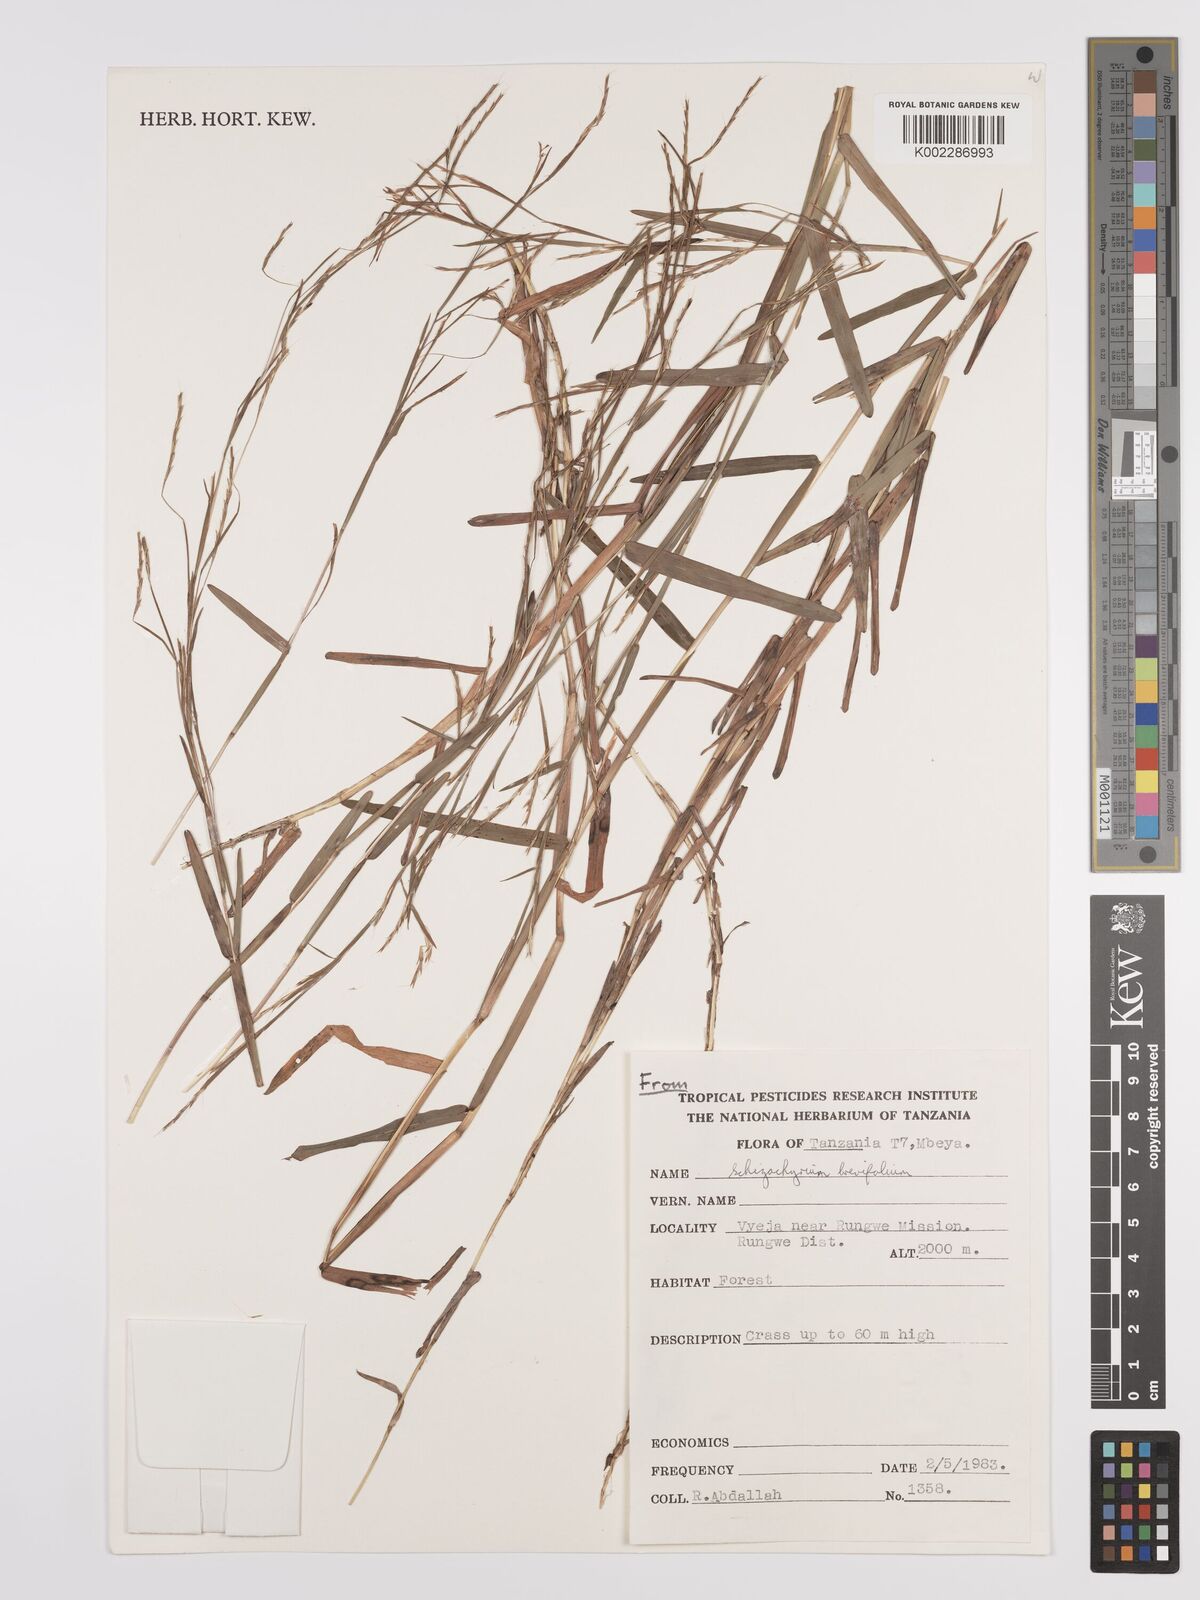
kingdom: Plantae
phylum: Tracheophyta
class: Liliopsida
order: Poales
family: Poaceae
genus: Schizachyrium
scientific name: Schizachyrium brevifolium
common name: Serillo dulce
